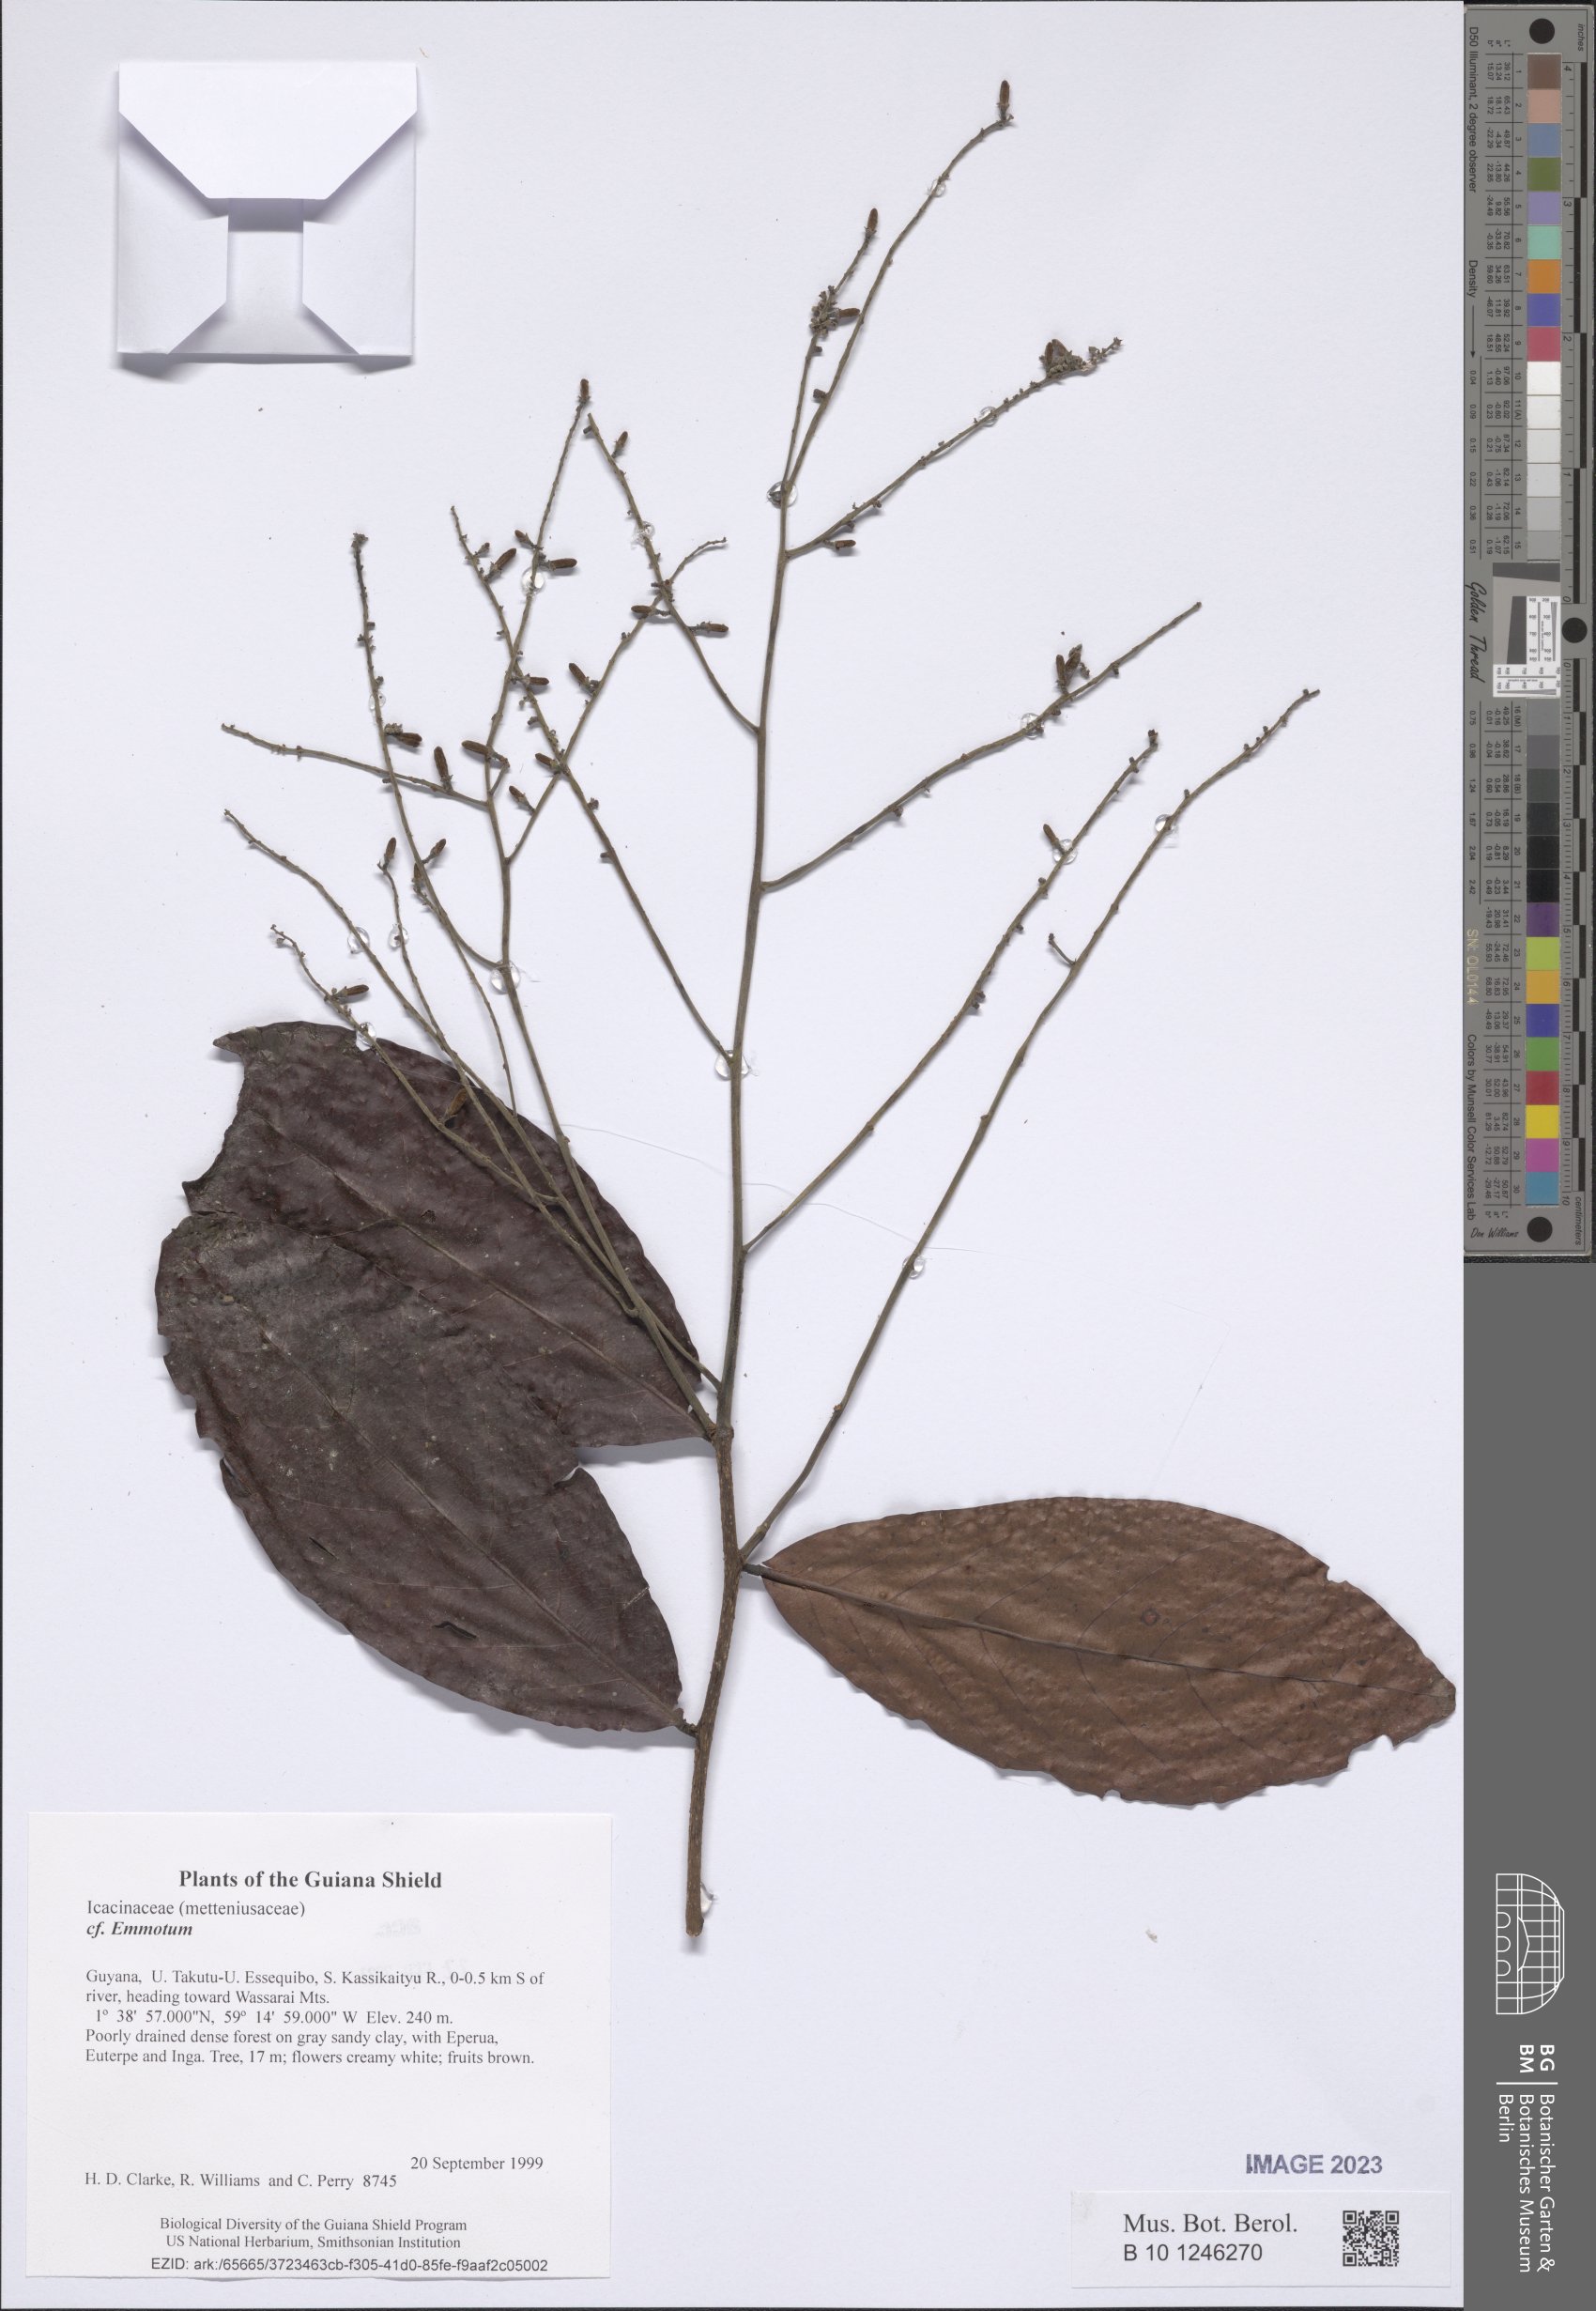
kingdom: Plantae
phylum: Tracheophyta
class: Magnoliopsida
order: Icacinales
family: Icacinaceae
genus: Emmotum
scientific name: Emmotum
